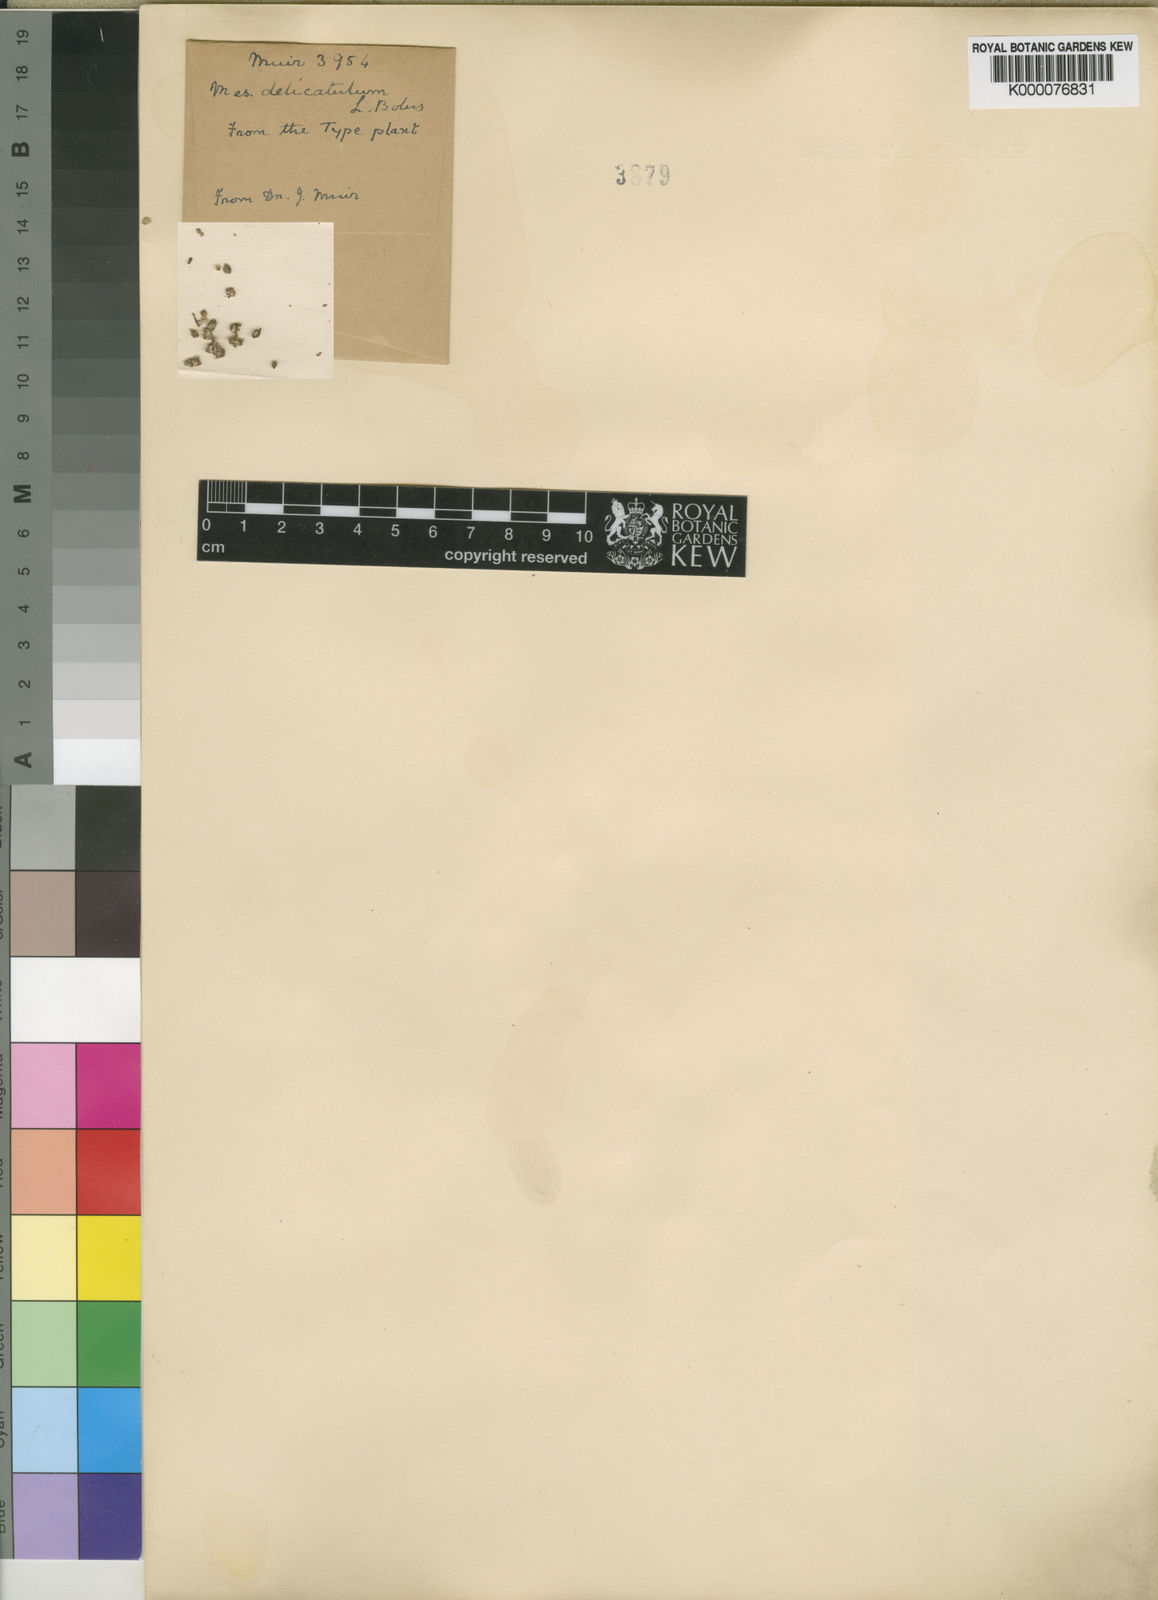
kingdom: Plantae
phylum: Tracheophyta
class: Magnoliopsida
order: Caryophyllales
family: Aizoaceae
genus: Drosanthemum
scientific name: Drosanthemum delicatulum
